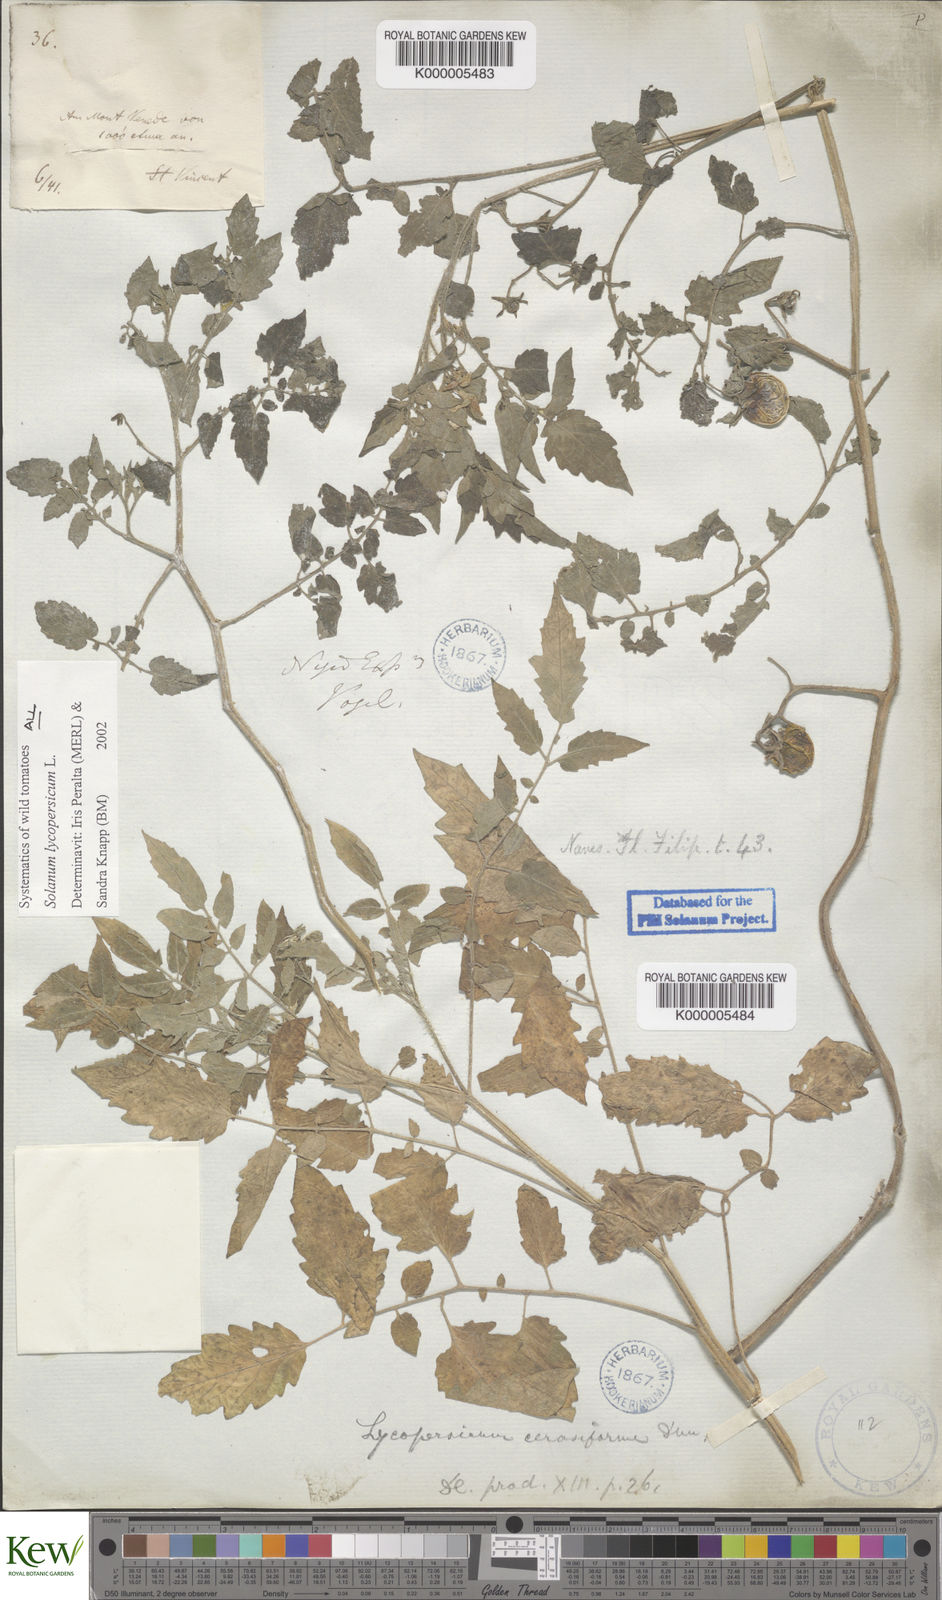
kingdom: Plantae
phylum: Tracheophyta
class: Magnoliopsida
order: Solanales
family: Solanaceae
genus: Solanum
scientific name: Solanum lycopersicum
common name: Garden tomato
